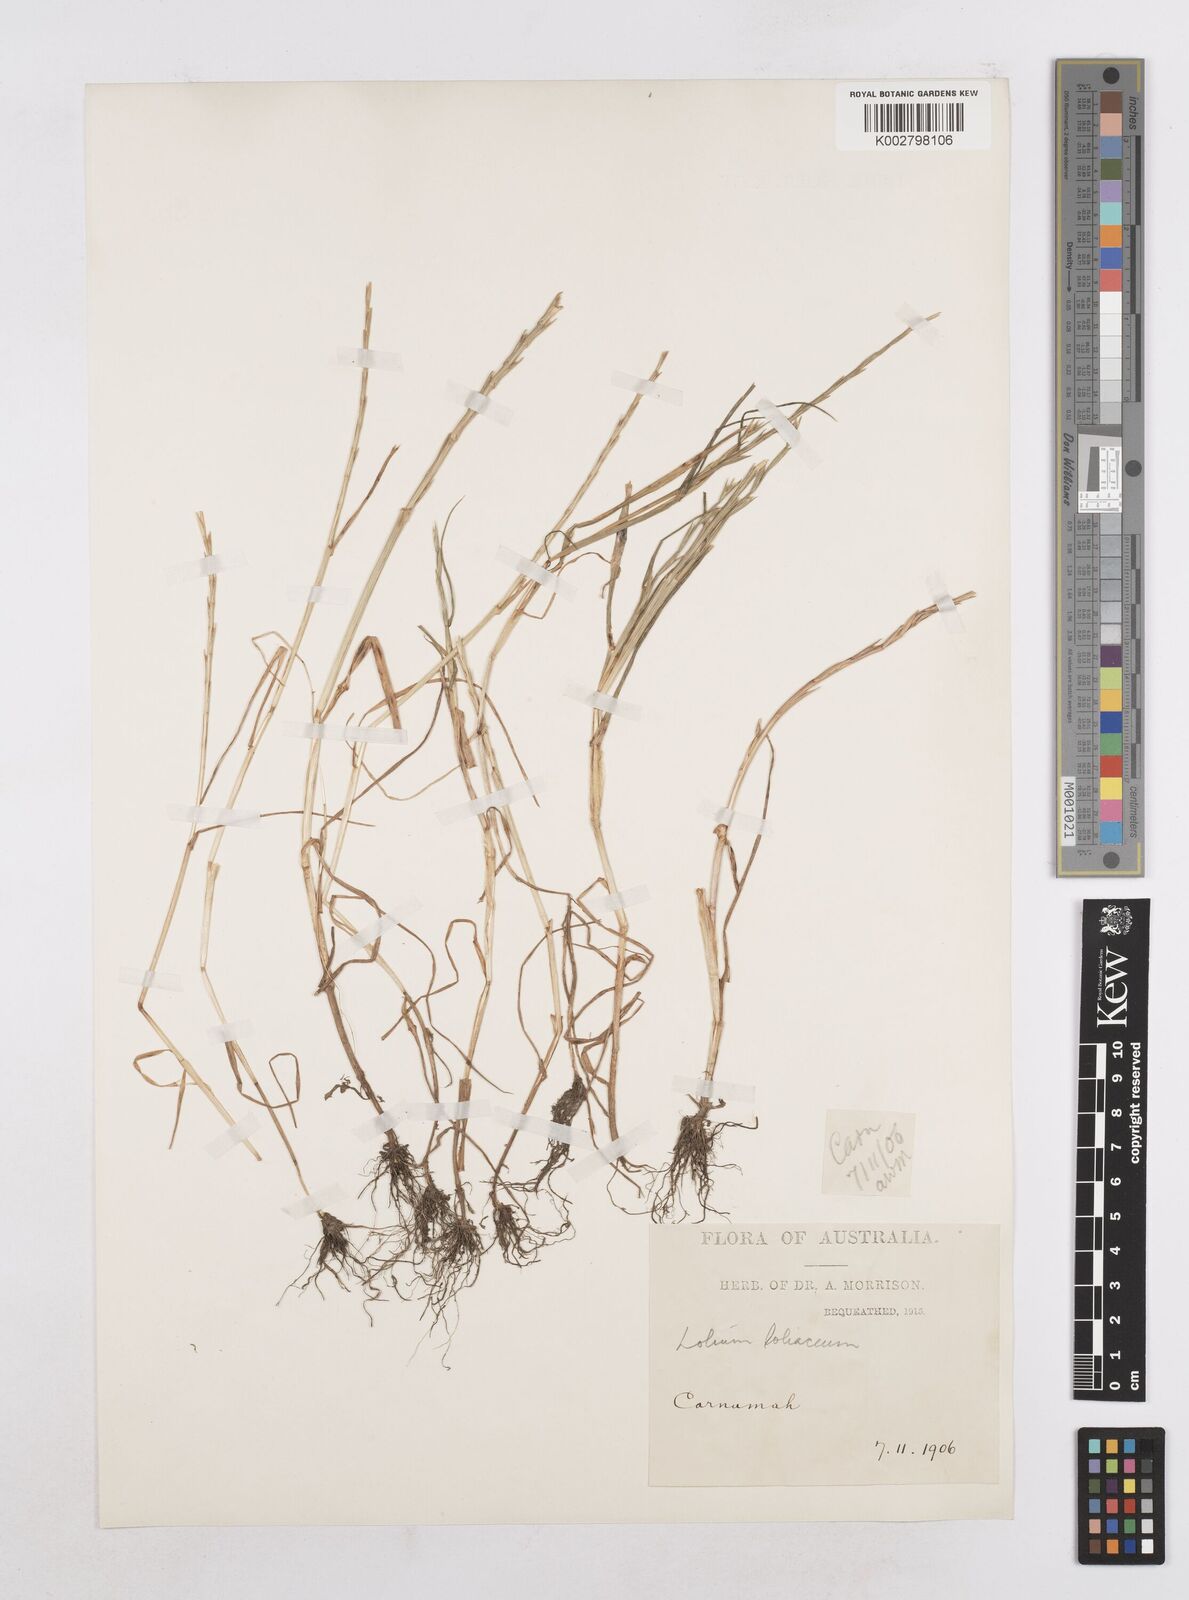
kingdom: Plantae
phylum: Tracheophyta
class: Liliopsida
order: Poales
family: Poaceae
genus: Lolium
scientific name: Lolium
